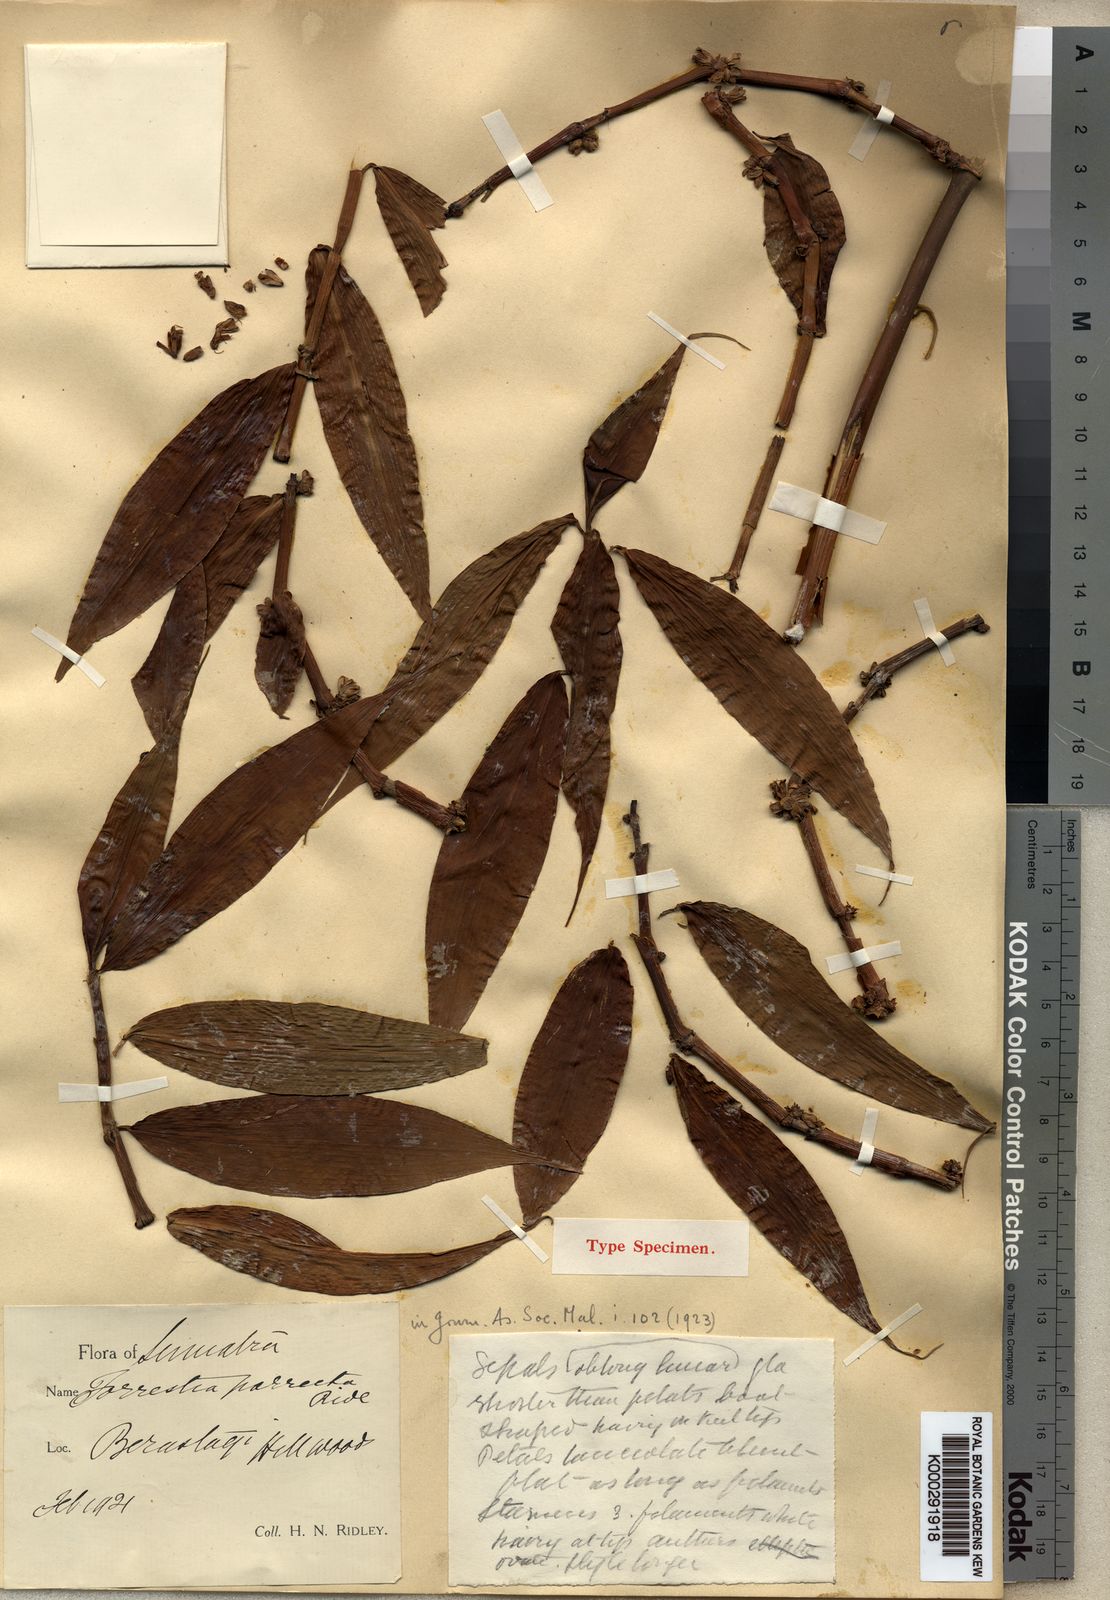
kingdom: Plantae
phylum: Tracheophyta
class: Liliopsida
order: Commelinales
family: Commelinaceae
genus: Amischotolype
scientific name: Amischotolype
